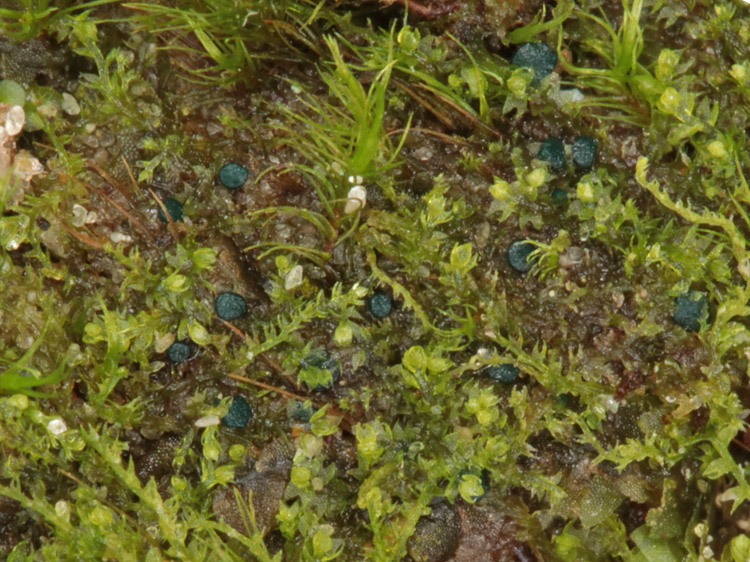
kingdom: Fungi
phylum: Ascomycota
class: Leotiomycetes
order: Leotiales
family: Mniaeciaceae
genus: Mniaecia
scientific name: Mniaecia jungermanniae
